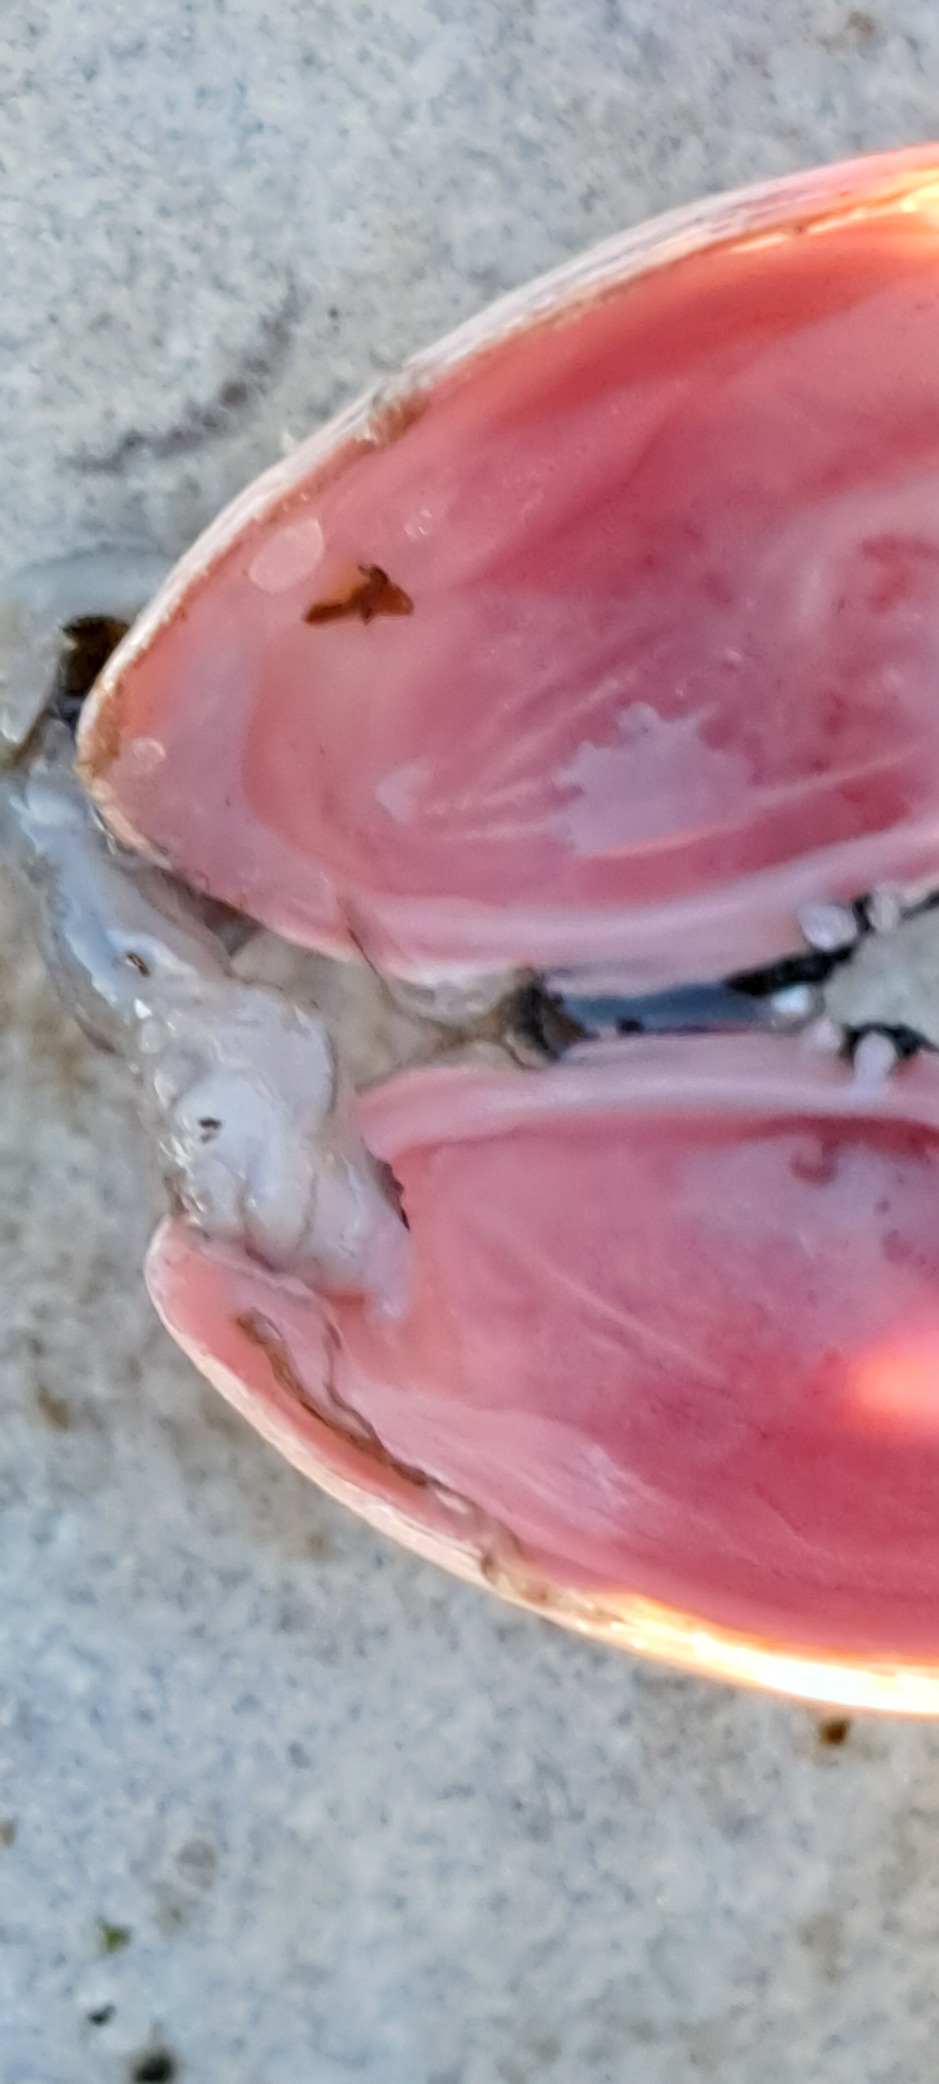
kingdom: Animalia
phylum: Mollusca
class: Bivalvia
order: Cardiida
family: Tellinidae
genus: Macoma
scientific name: Macoma balthica
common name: Østersømusling
